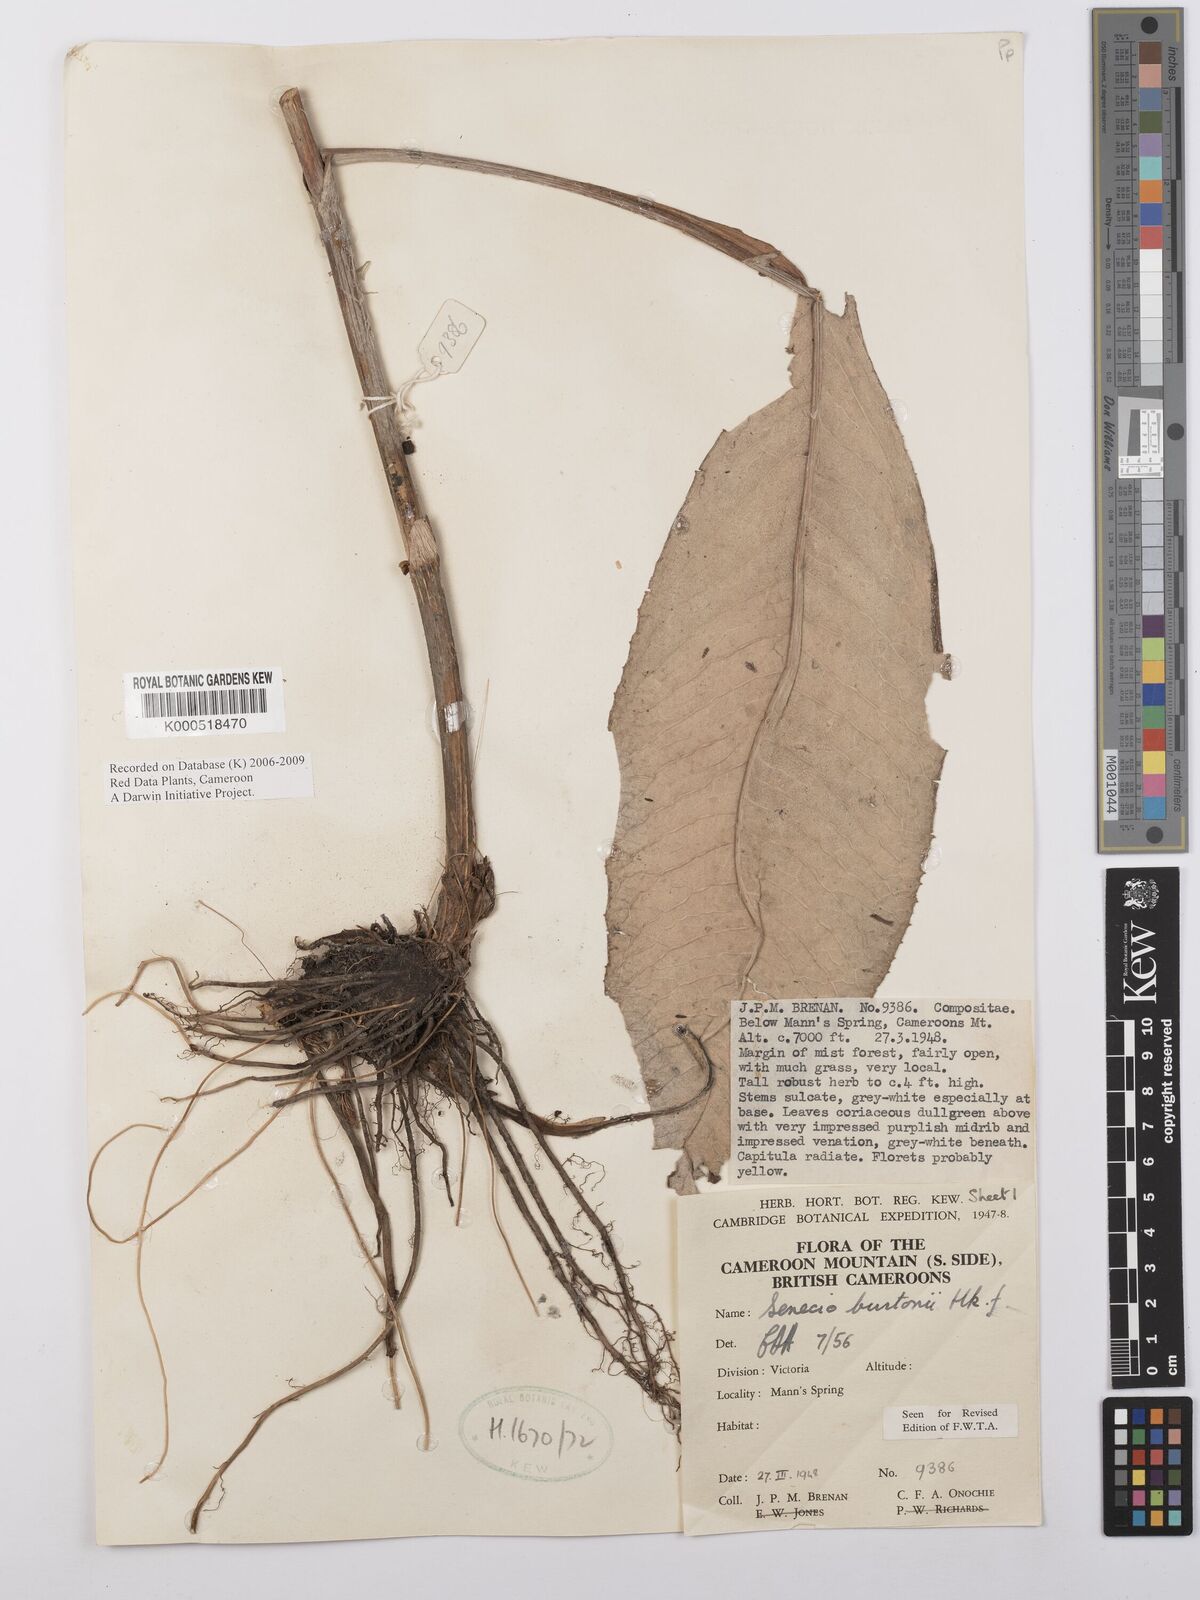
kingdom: Plantae
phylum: Tracheophyta
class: Magnoliopsida
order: Asterales
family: Asteraceae
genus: Senecio
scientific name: Senecio burtonii
